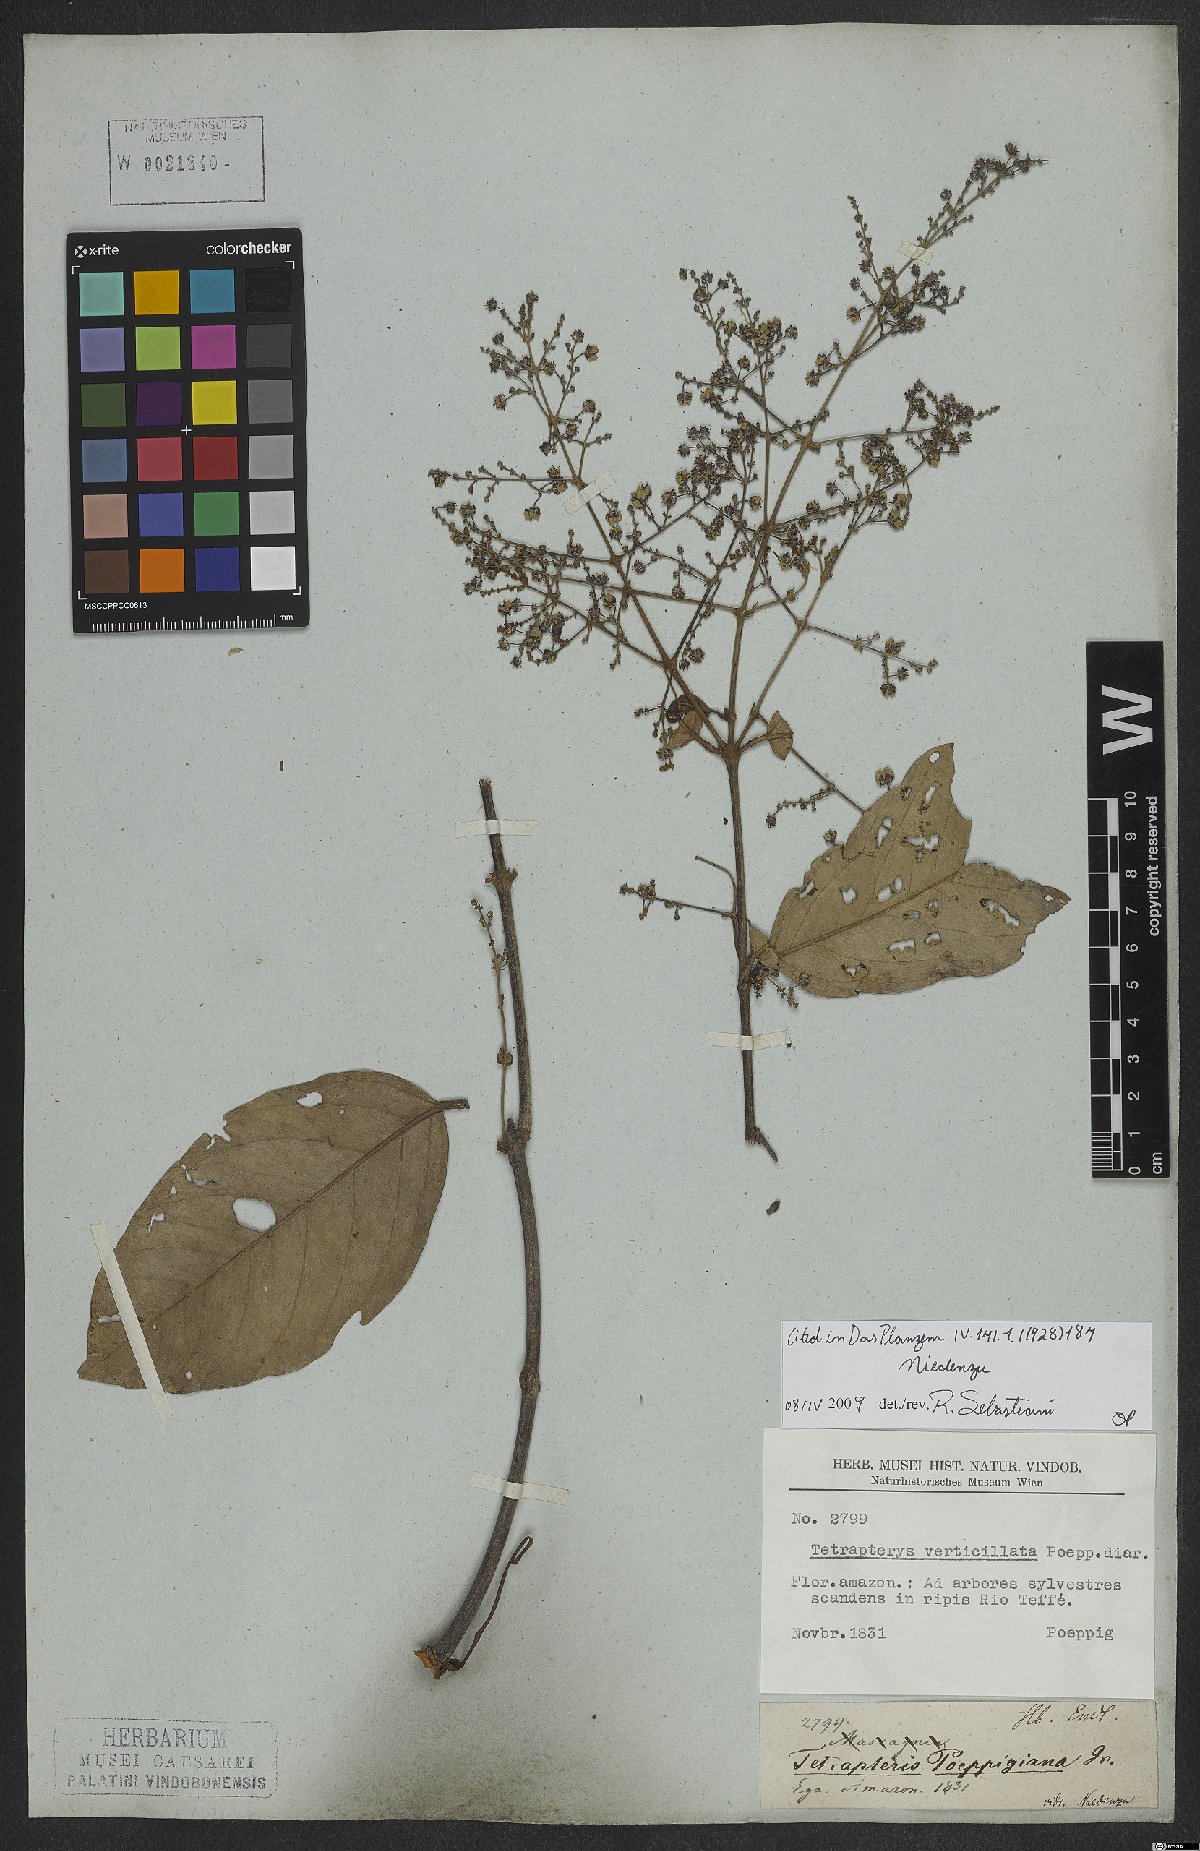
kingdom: Plantae
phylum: Tracheophyta
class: Magnoliopsida
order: Malpighiales
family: Malpighiaceae
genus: Niedenzuella
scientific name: Niedenzuella poeppigiana
